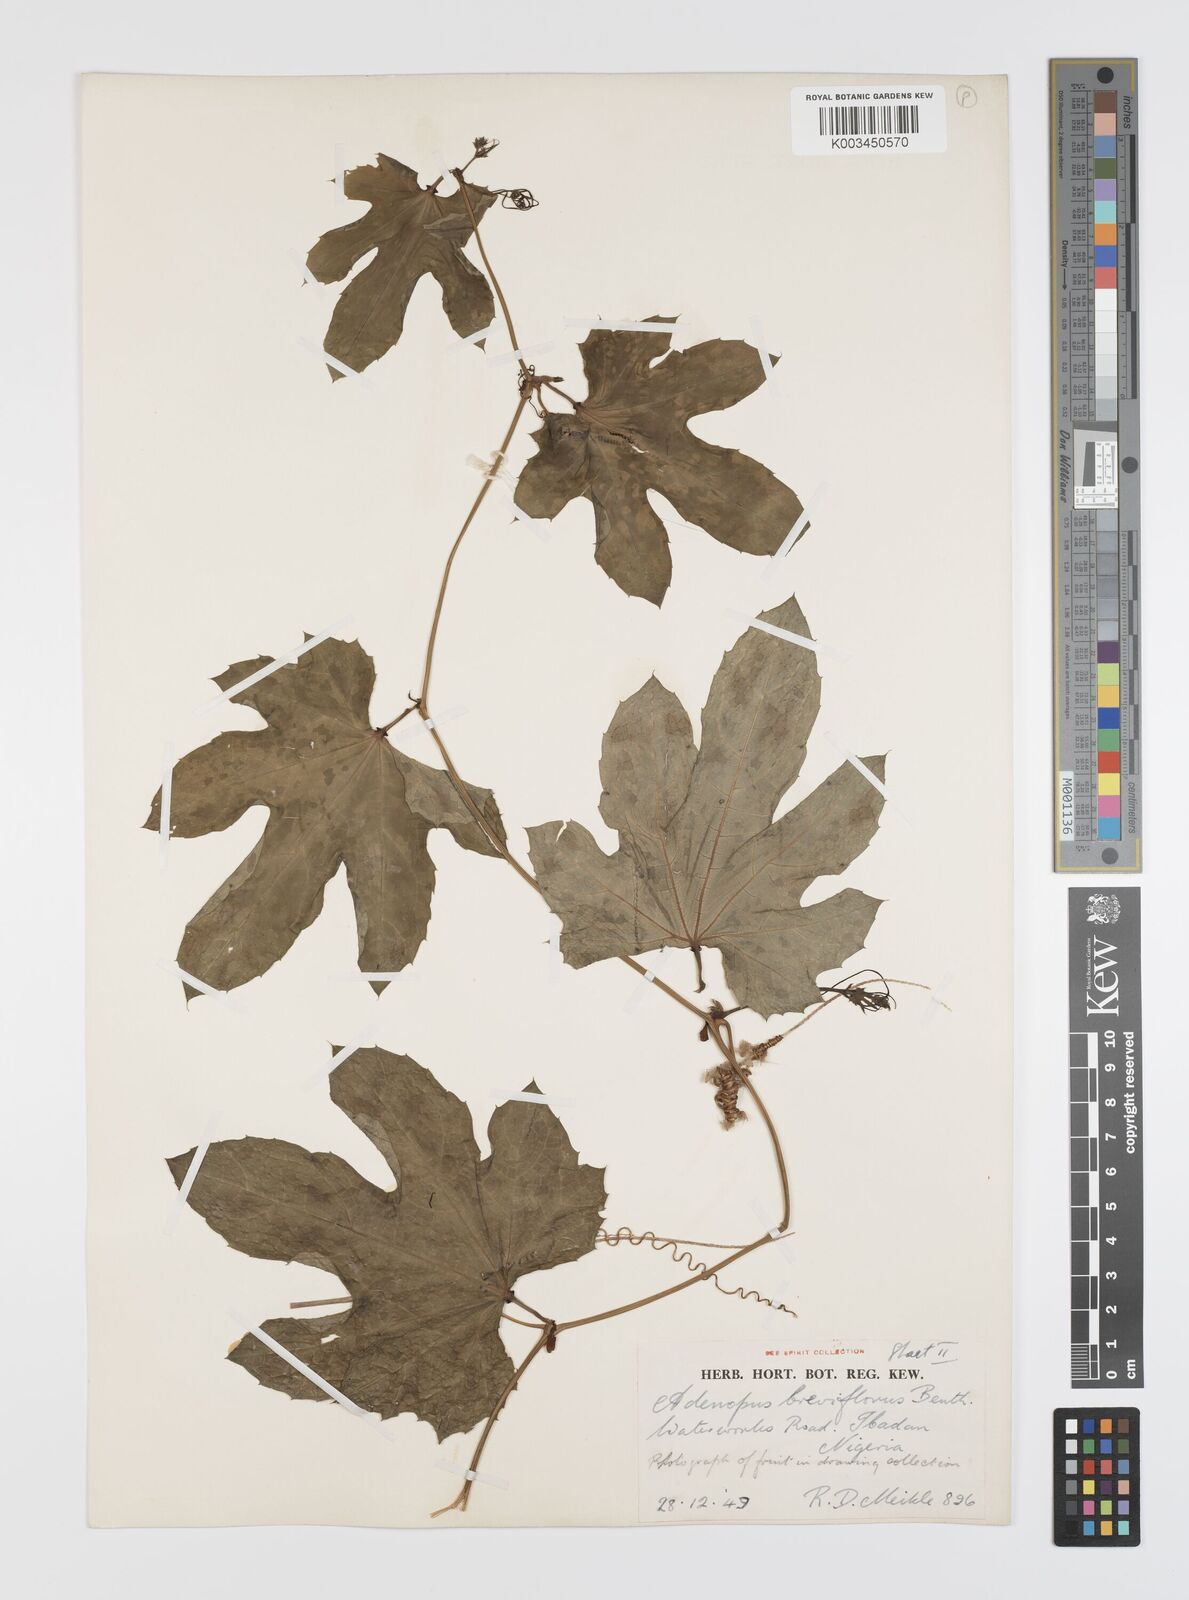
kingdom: Plantae
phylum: Tracheophyta
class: Magnoliopsida
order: Cucurbitales
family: Cucurbitaceae
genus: Lagenaria
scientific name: Lagenaria breviflora
